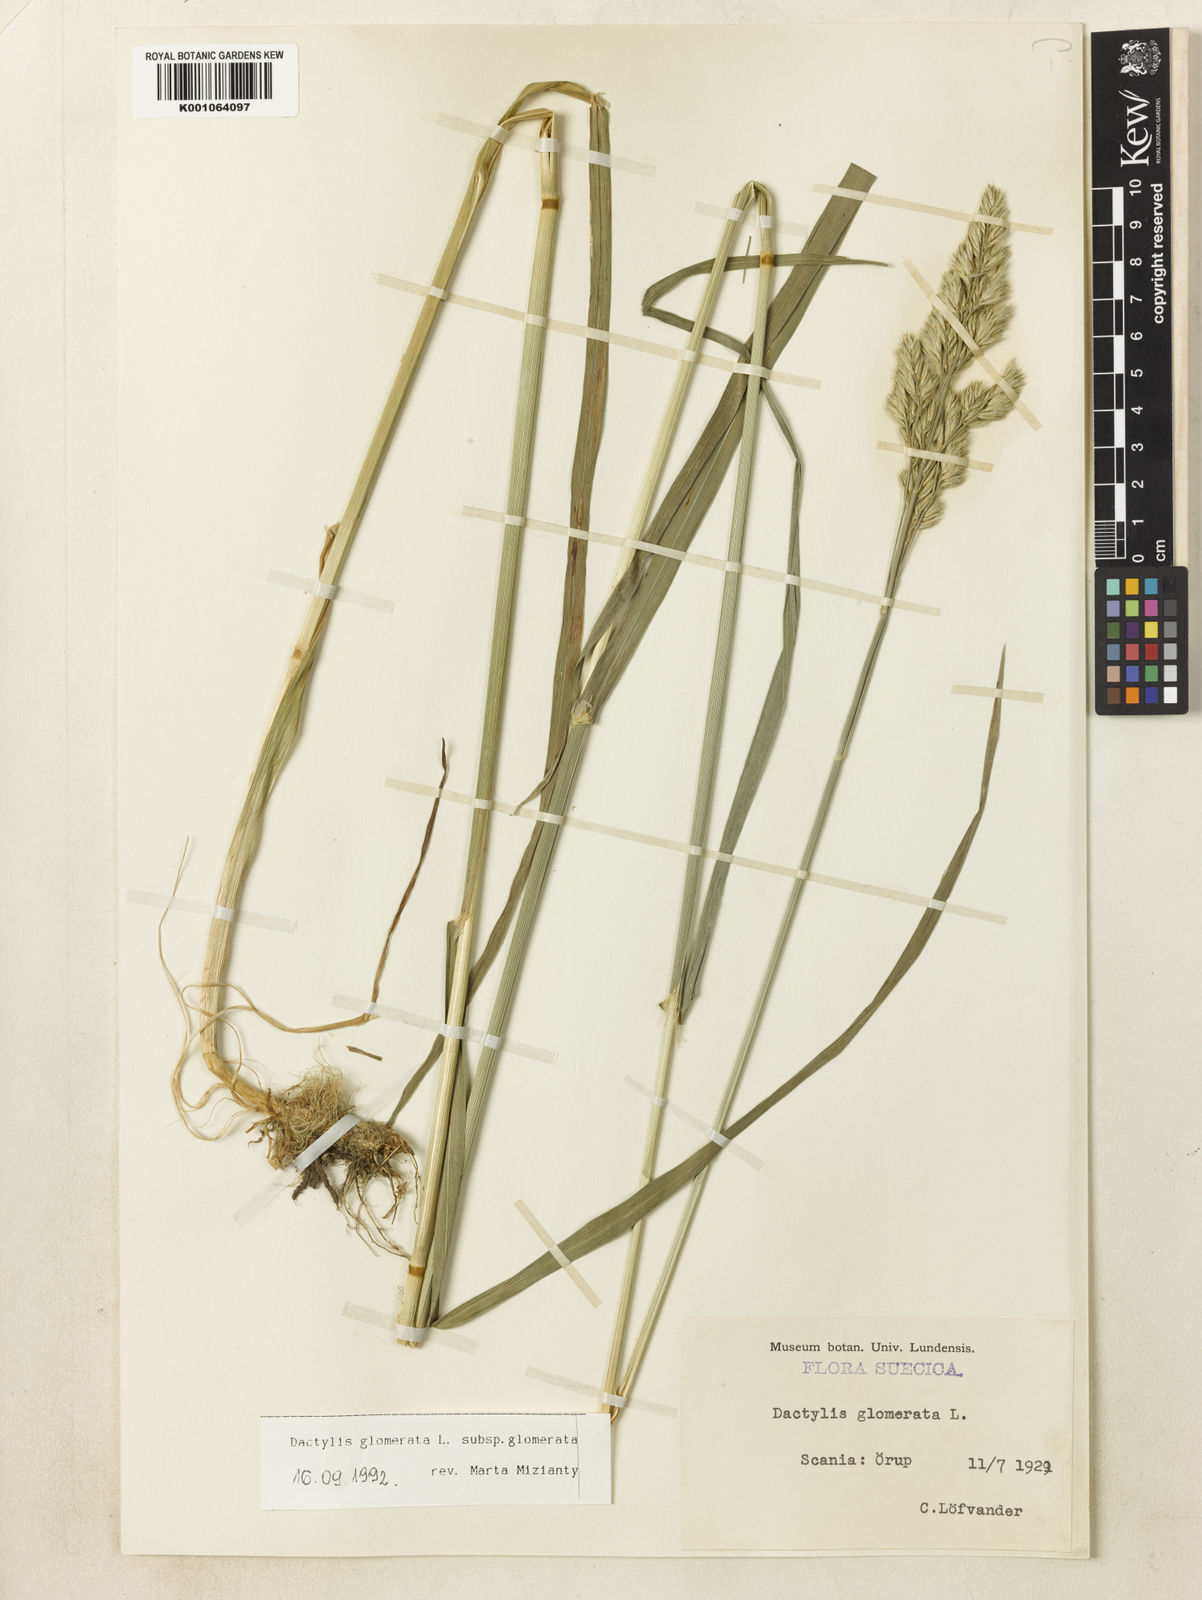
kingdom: Plantae
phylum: Tracheophyta
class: Liliopsida
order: Poales
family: Poaceae
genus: Dactylis
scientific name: Dactylis glomerata
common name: Orchardgrass
